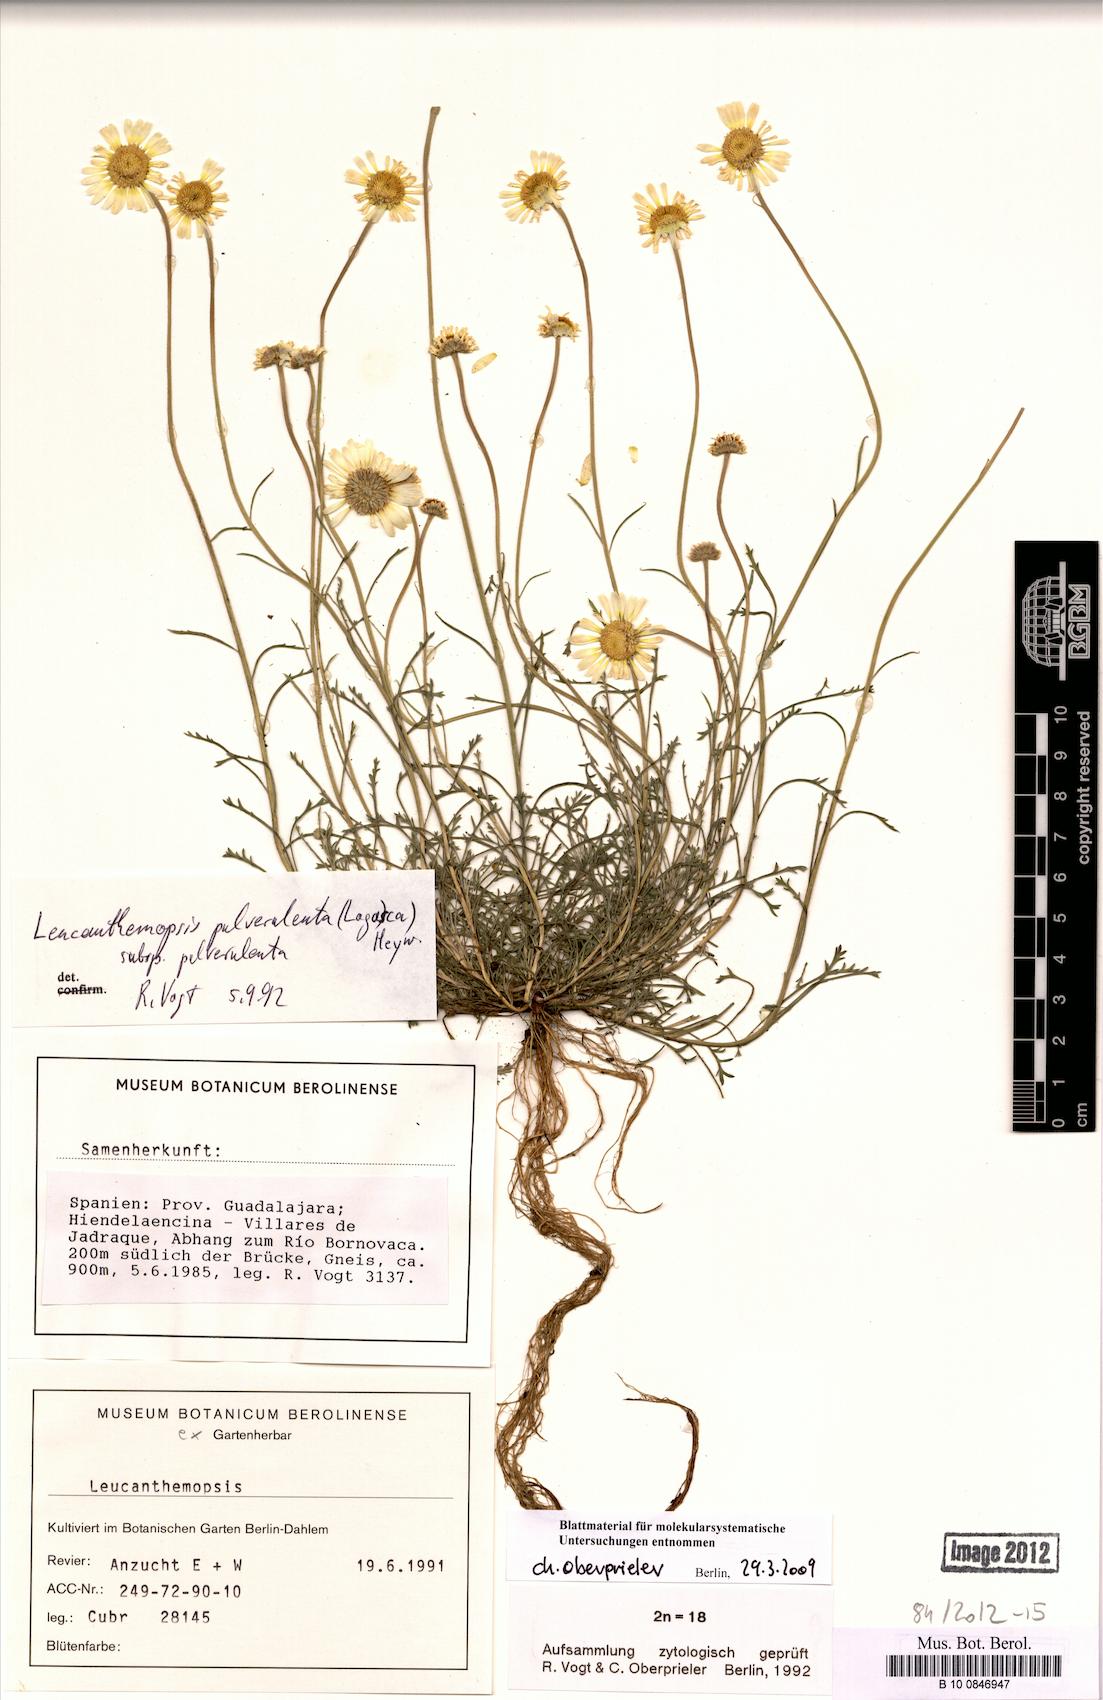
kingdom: Plantae
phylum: Tracheophyta
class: Magnoliopsida
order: Asterales
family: Asteraceae
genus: Leucanthemopsis
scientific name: Leucanthemopsis pulverulenta
